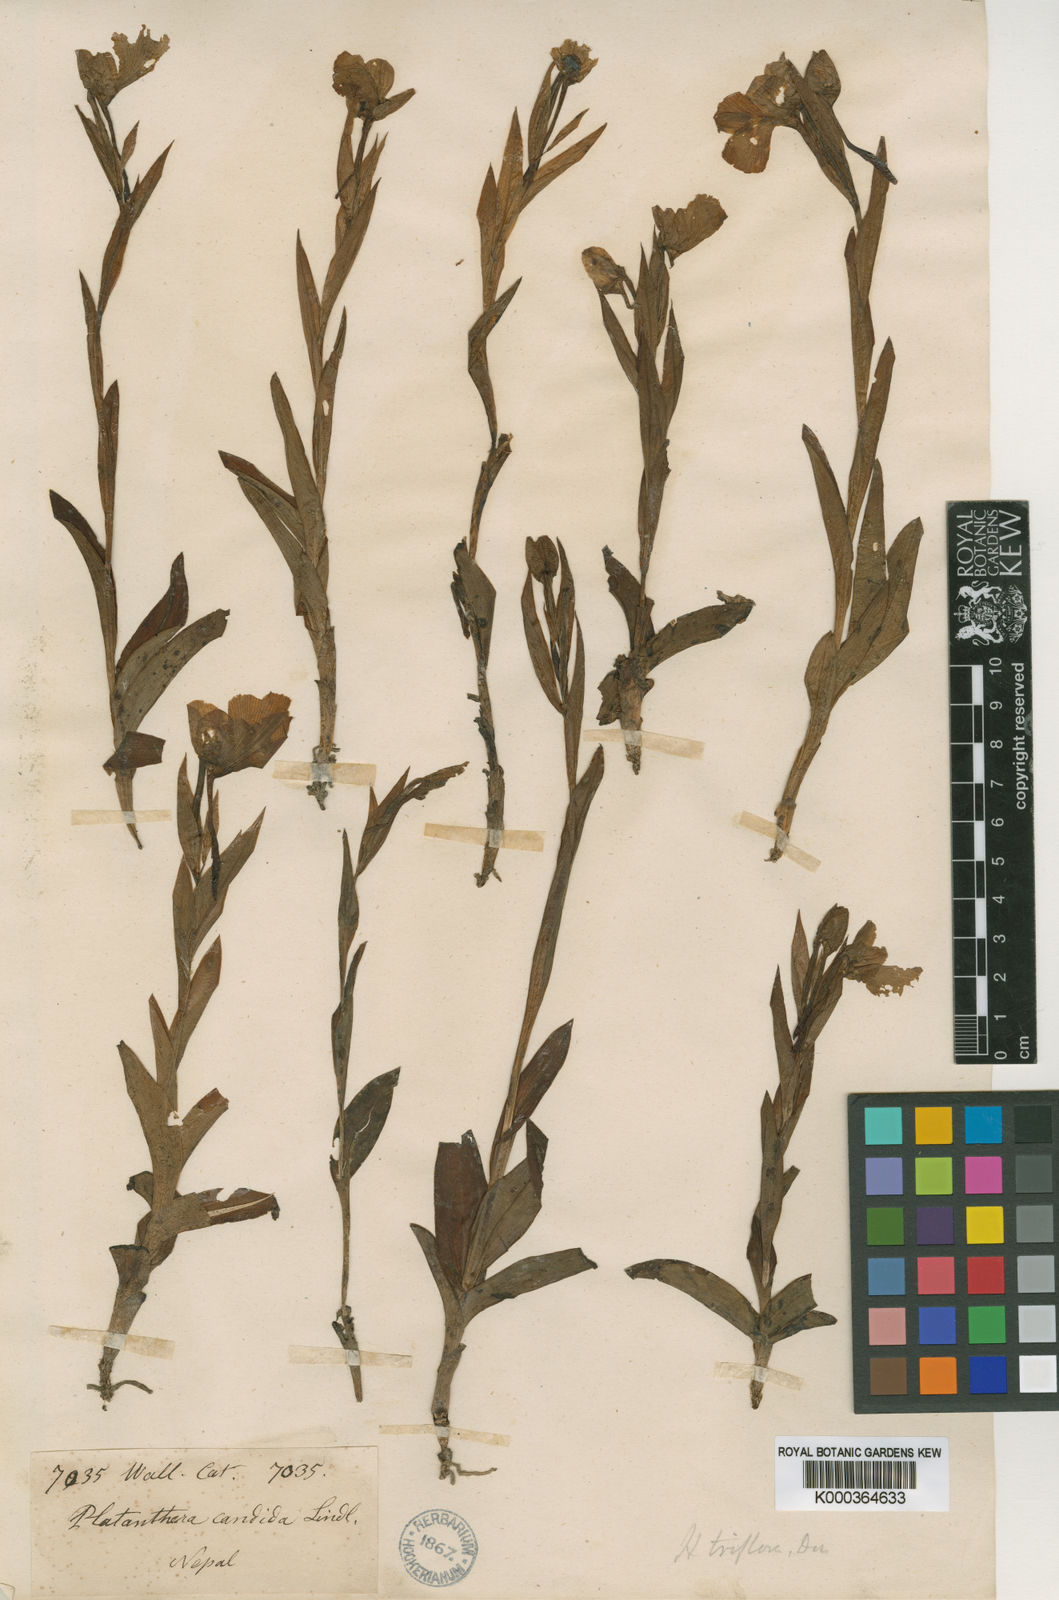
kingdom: Plantae
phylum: Tracheophyta
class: Liliopsida
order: Asparagales
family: Orchidaceae
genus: Pecteilis
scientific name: Pecteilis susannae
